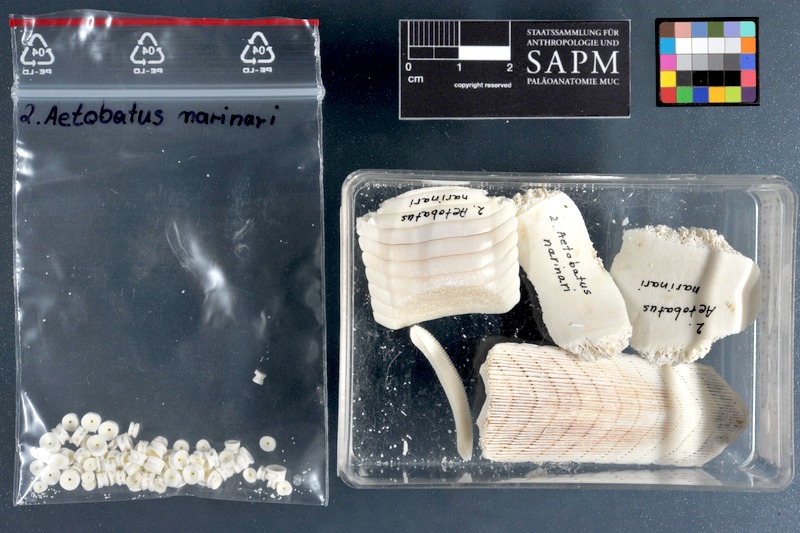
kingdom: Animalia
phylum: Chordata
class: Elasmobranchii
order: Myliobatiformes
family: Myliobatidae
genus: Aetobatus
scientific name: Aetobatus narinari
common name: Spotted eagle ray
